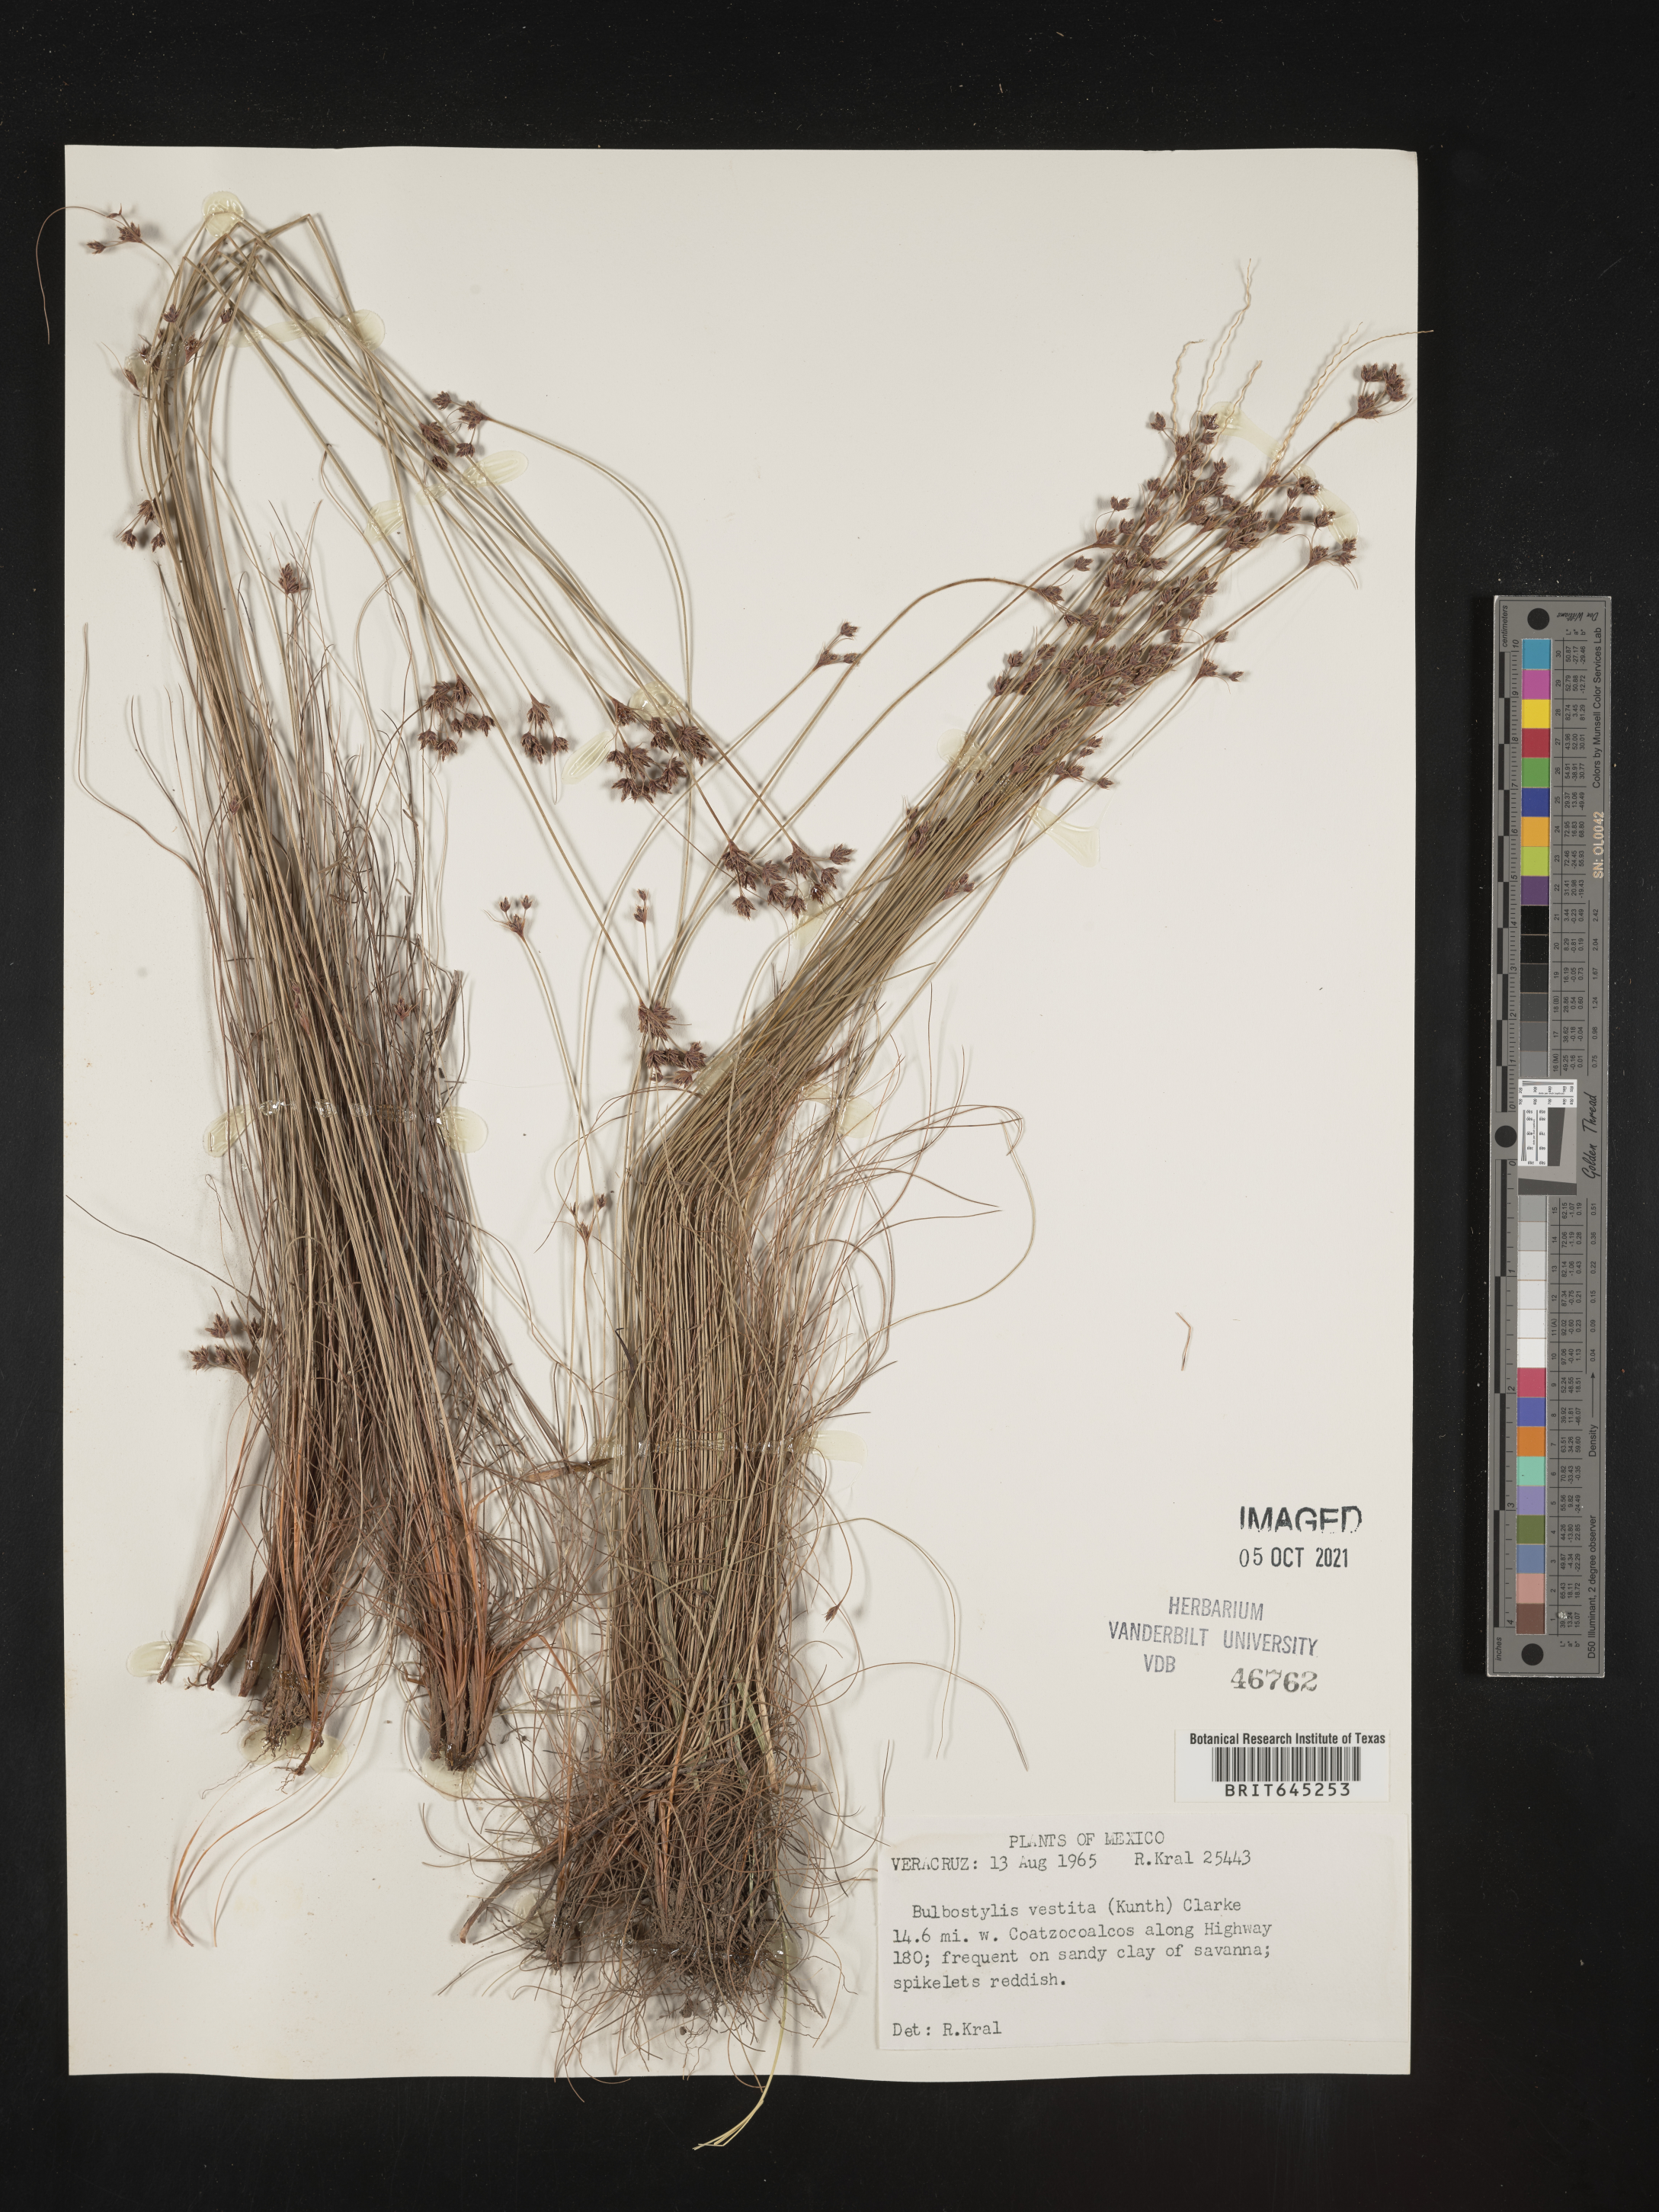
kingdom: Plantae
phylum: Tracheophyta
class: Liliopsida
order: Poales
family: Cyperaceae
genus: Bulbostylis
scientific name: Bulbostylis vestita
